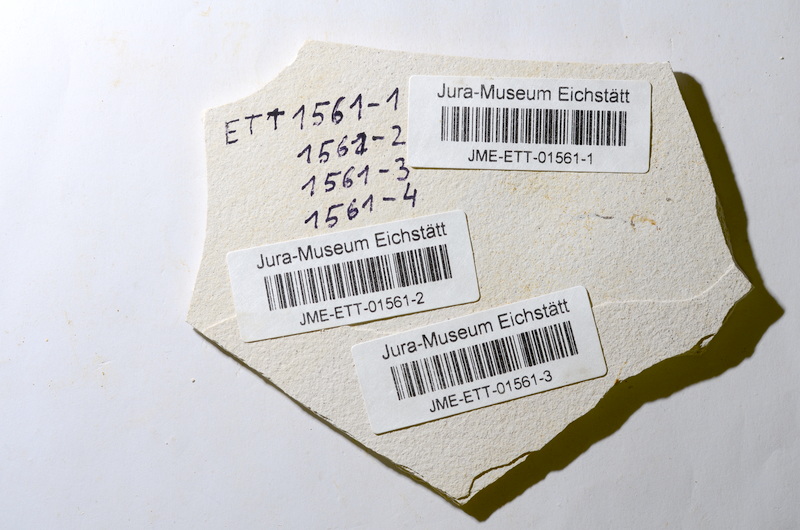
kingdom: Animalia
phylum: Chordata
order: Salmoniformes
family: Orthogonikleithridae
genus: Orthogonikleithrus
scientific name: Orthogonikleithrus hoelli
